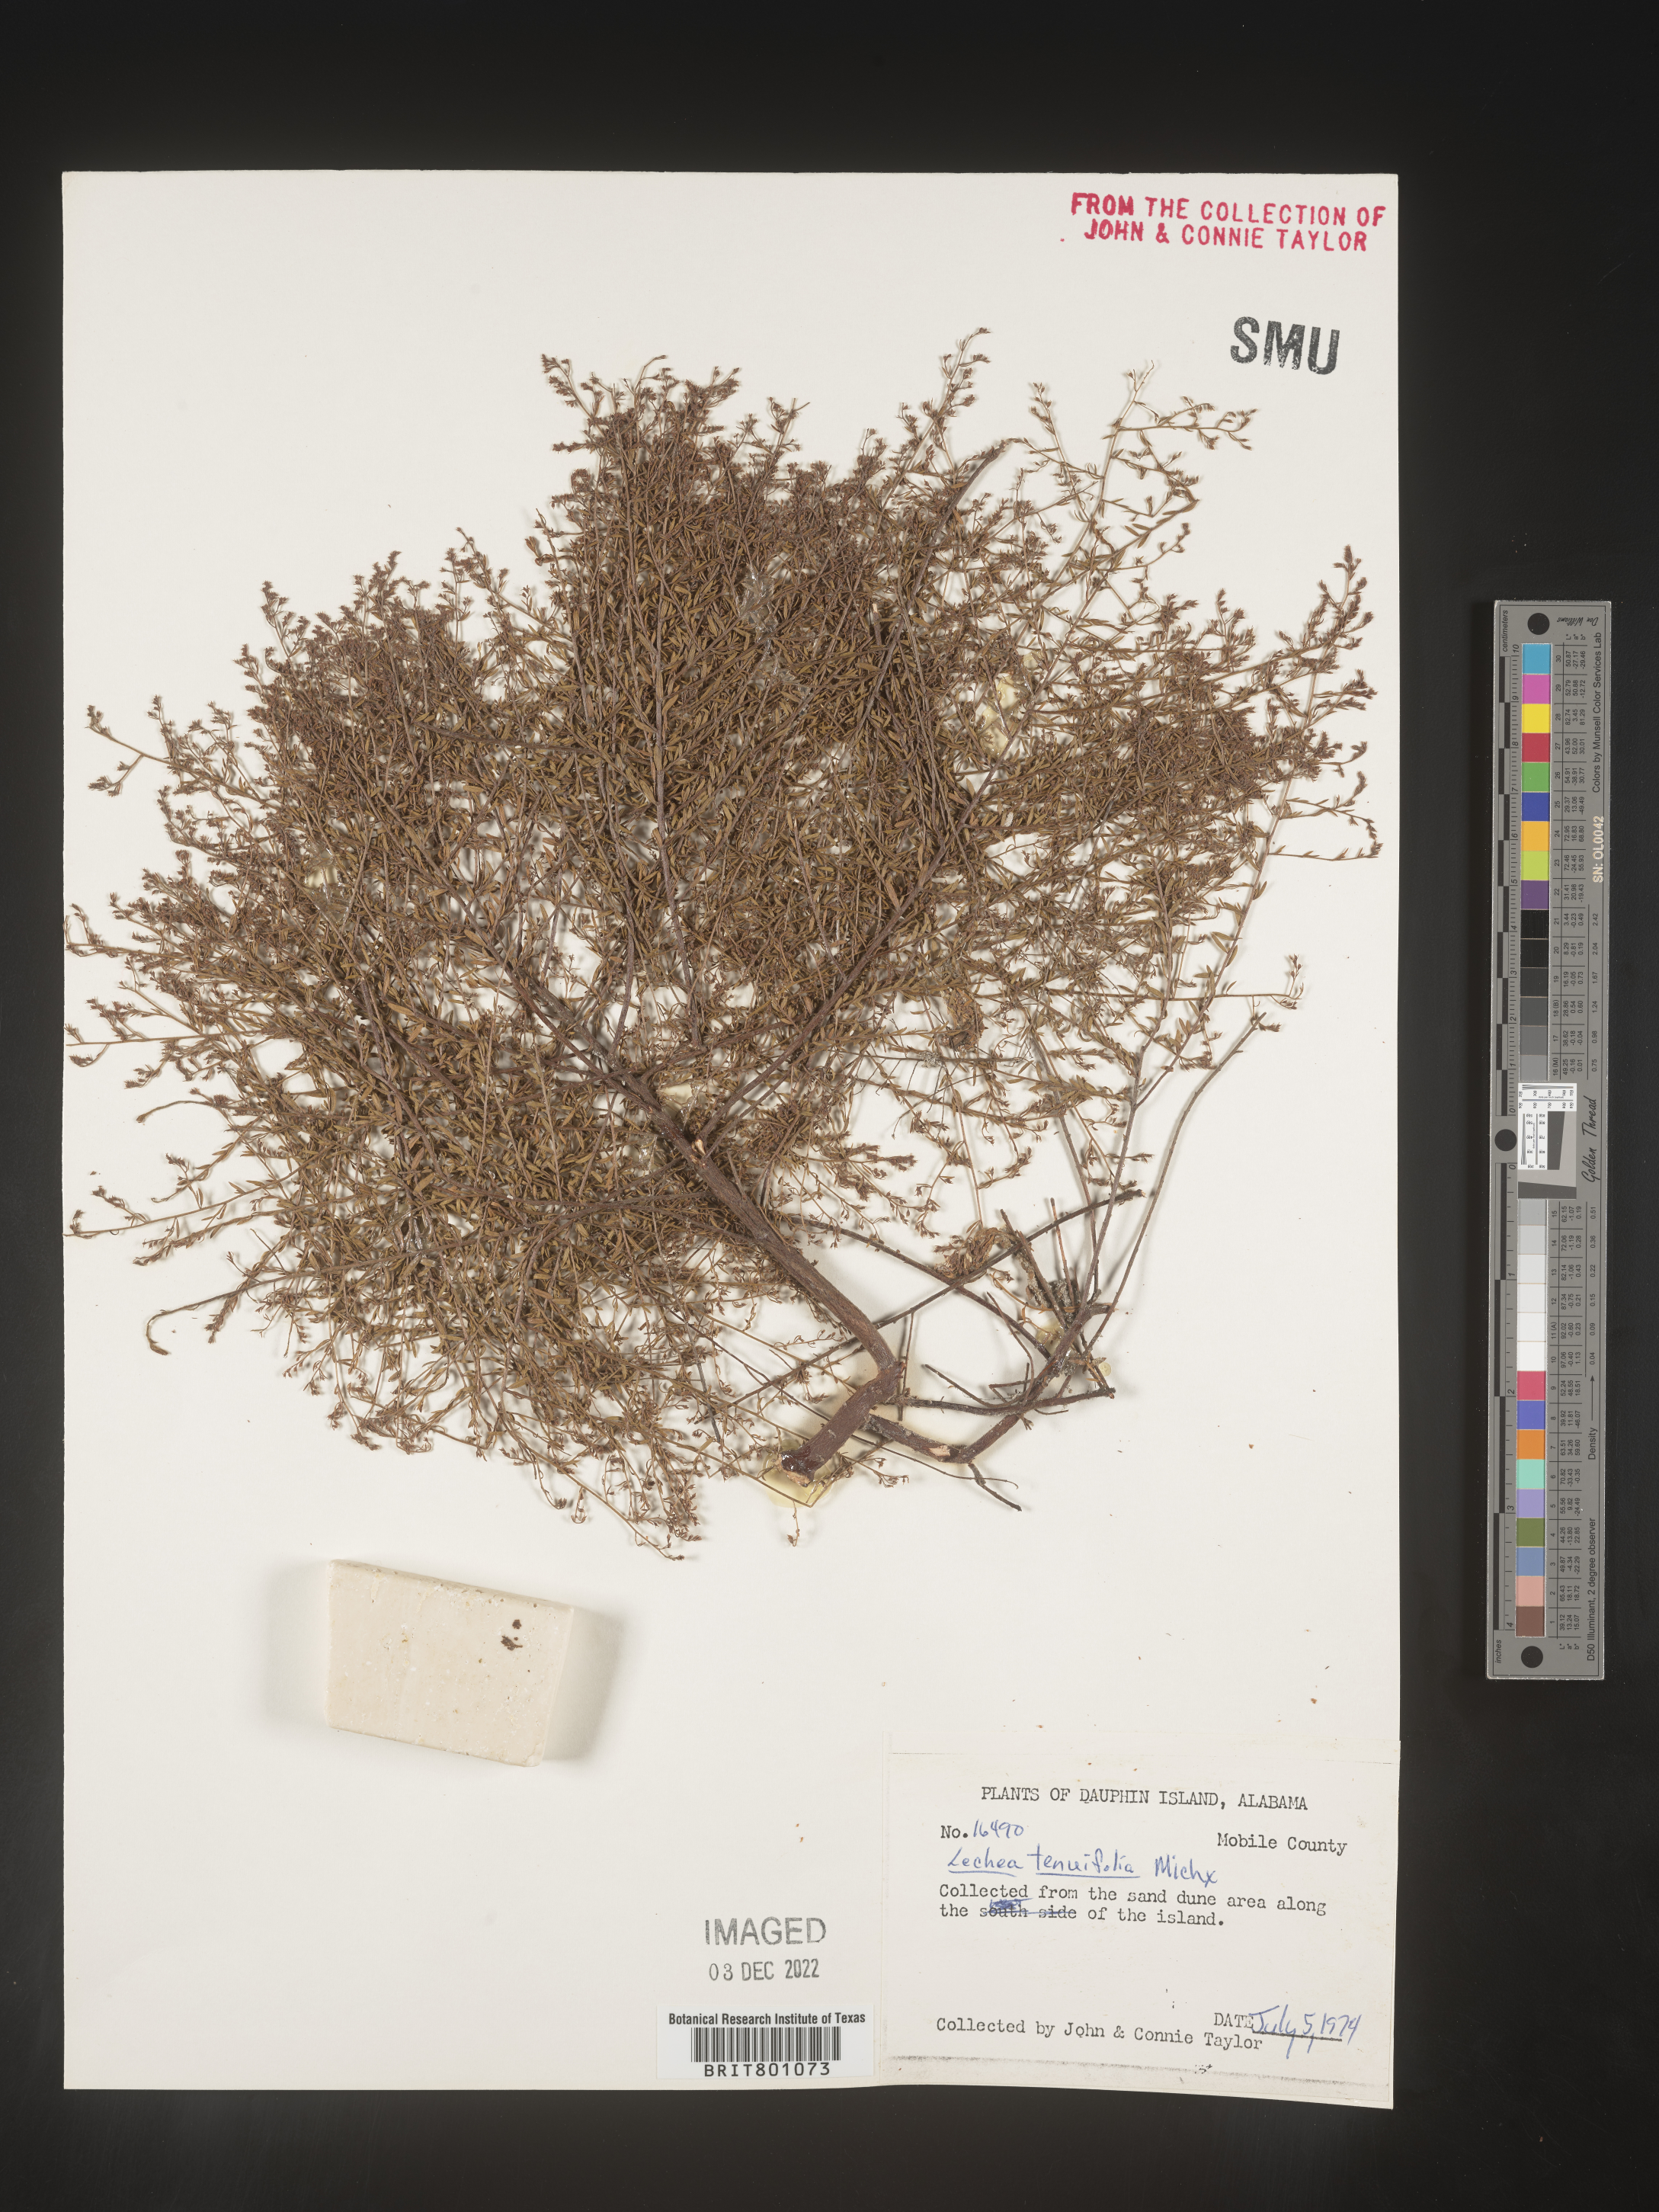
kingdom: Plantae
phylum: Tracheophyta
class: Magnoliopsida
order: Malvales
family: Cistaceae
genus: Lechea
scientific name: Lechea tenuifolia
